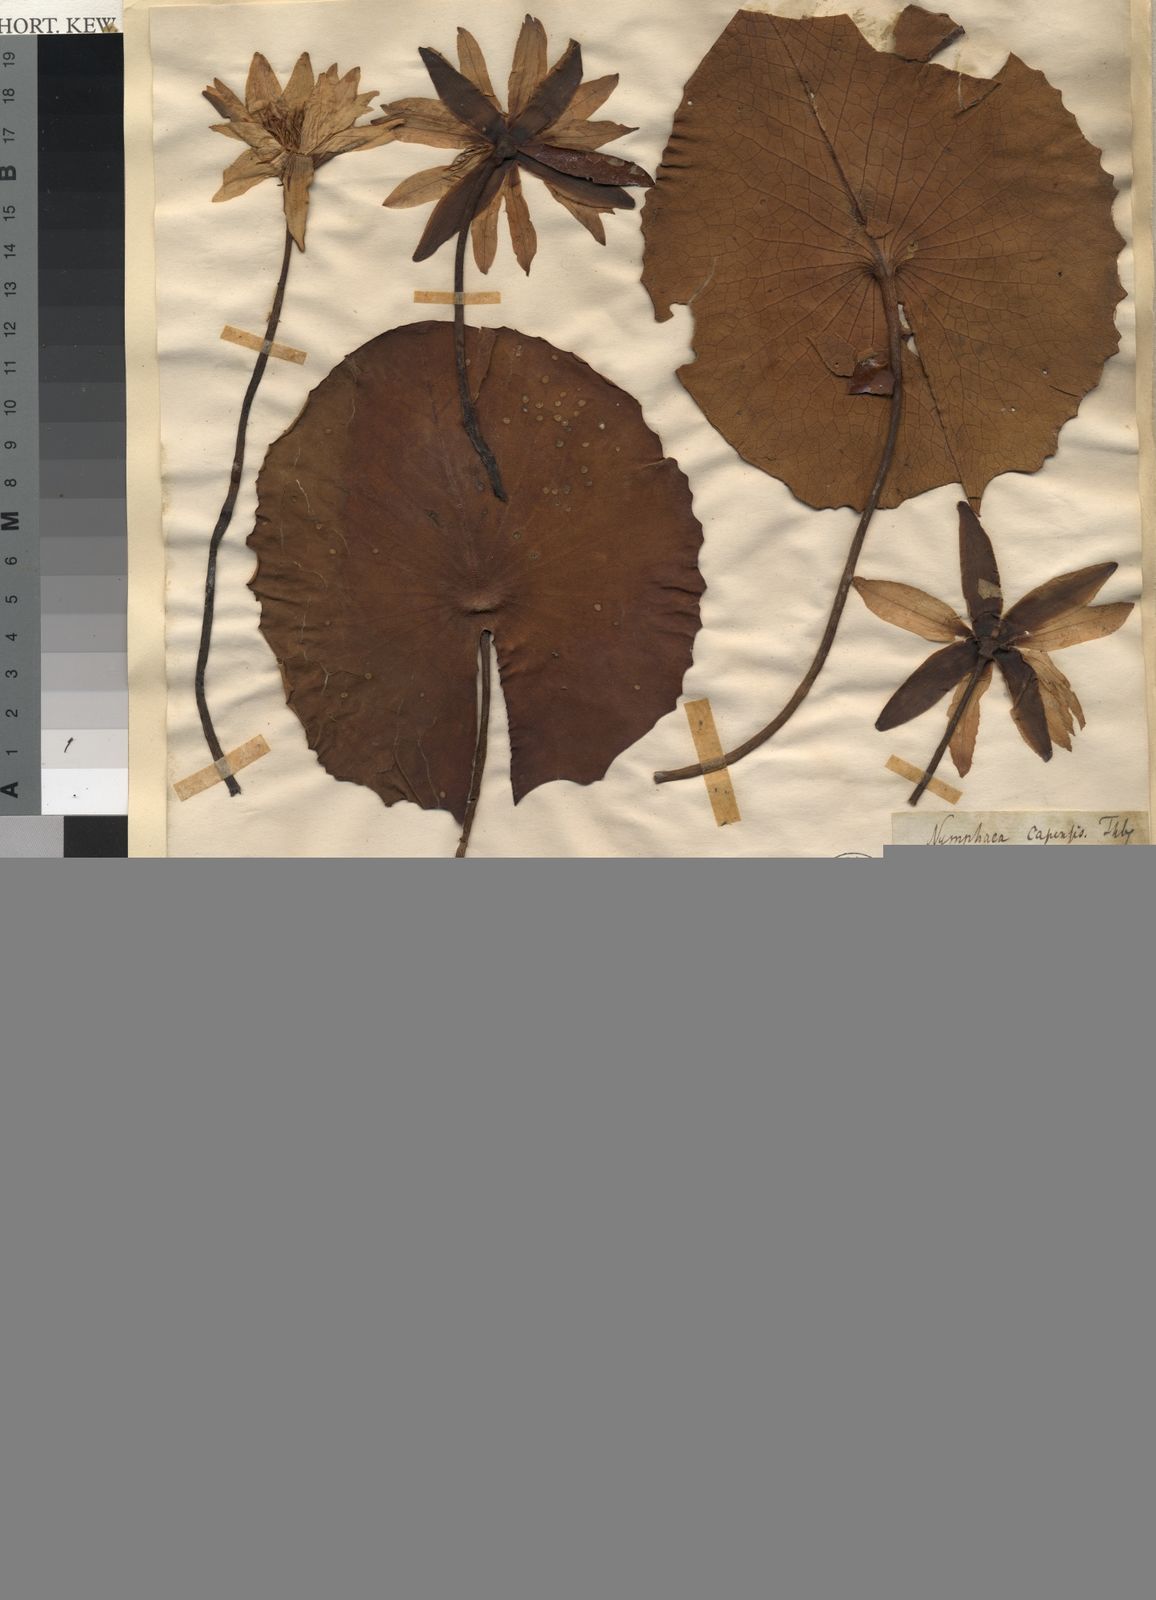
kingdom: Plantae
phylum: Tracheophyta
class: Magnoliopsida
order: Nymphaeales
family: Nymphaeaceae
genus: Nymphaea
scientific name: Nymphaea nouchali
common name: Blue lotus
